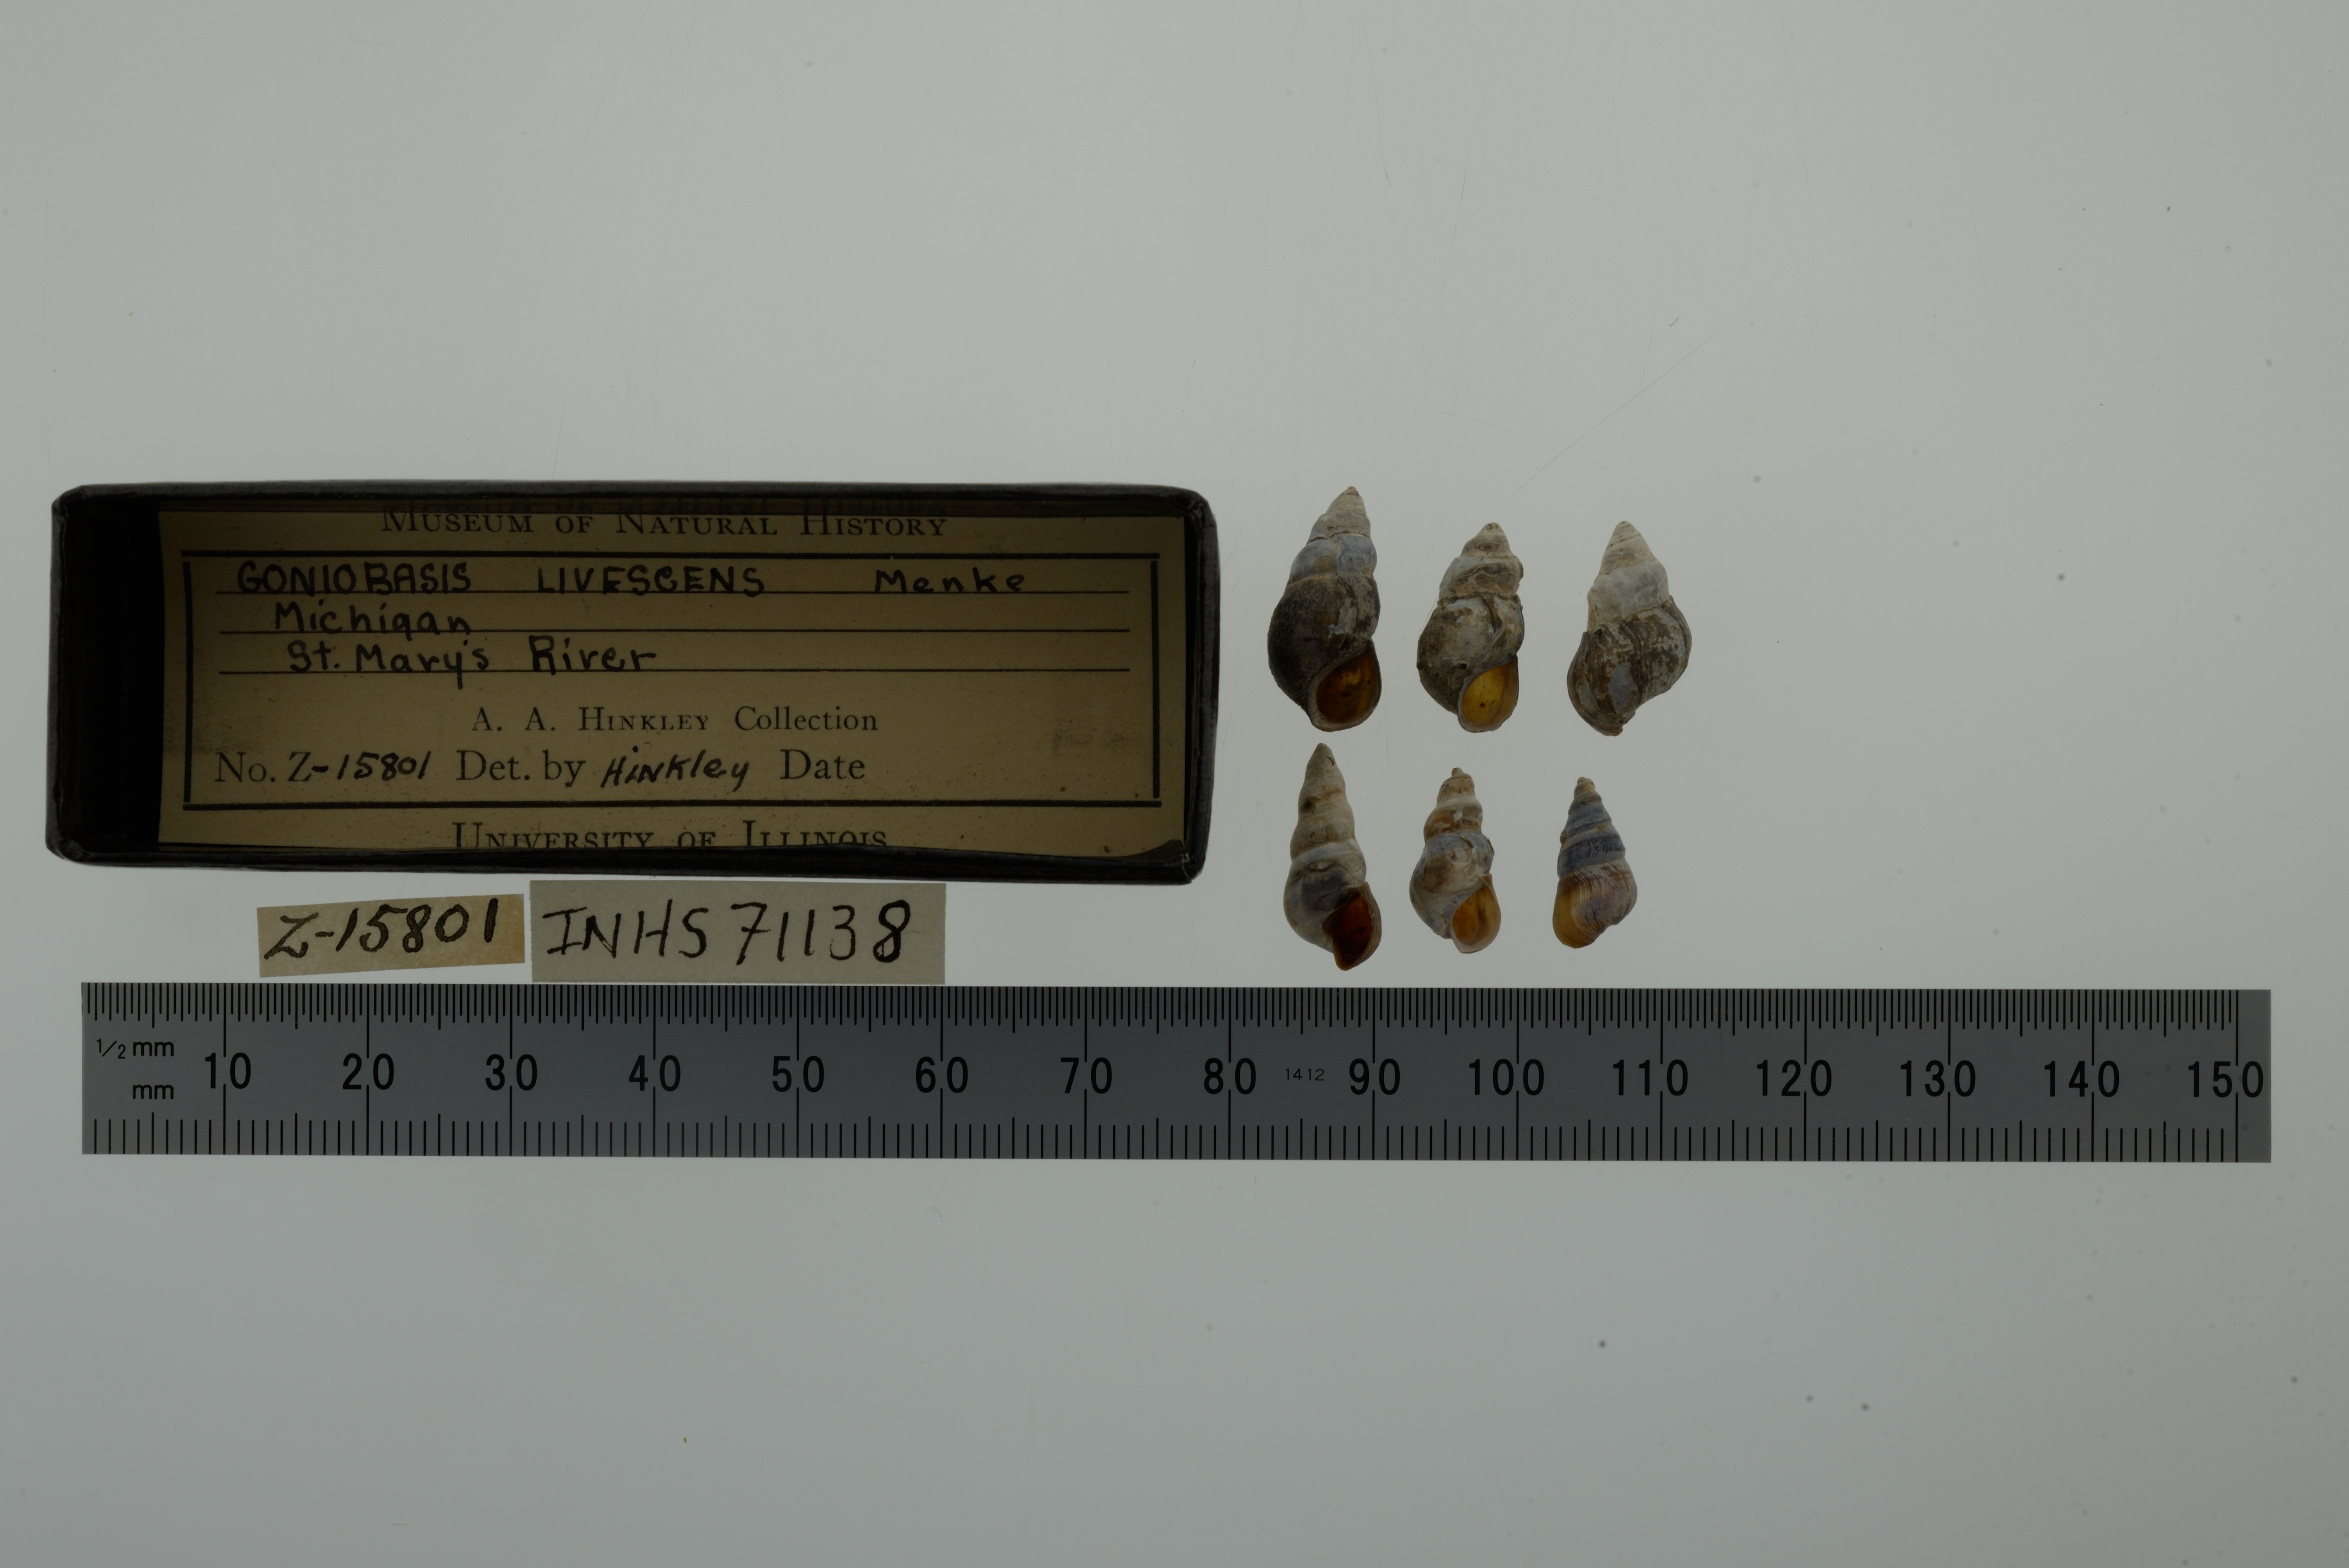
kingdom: Animalia
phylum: Mollusca
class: Gastropoda
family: Pleuroceridae
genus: Elimia
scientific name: Elimia livescens
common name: Liver elimia
